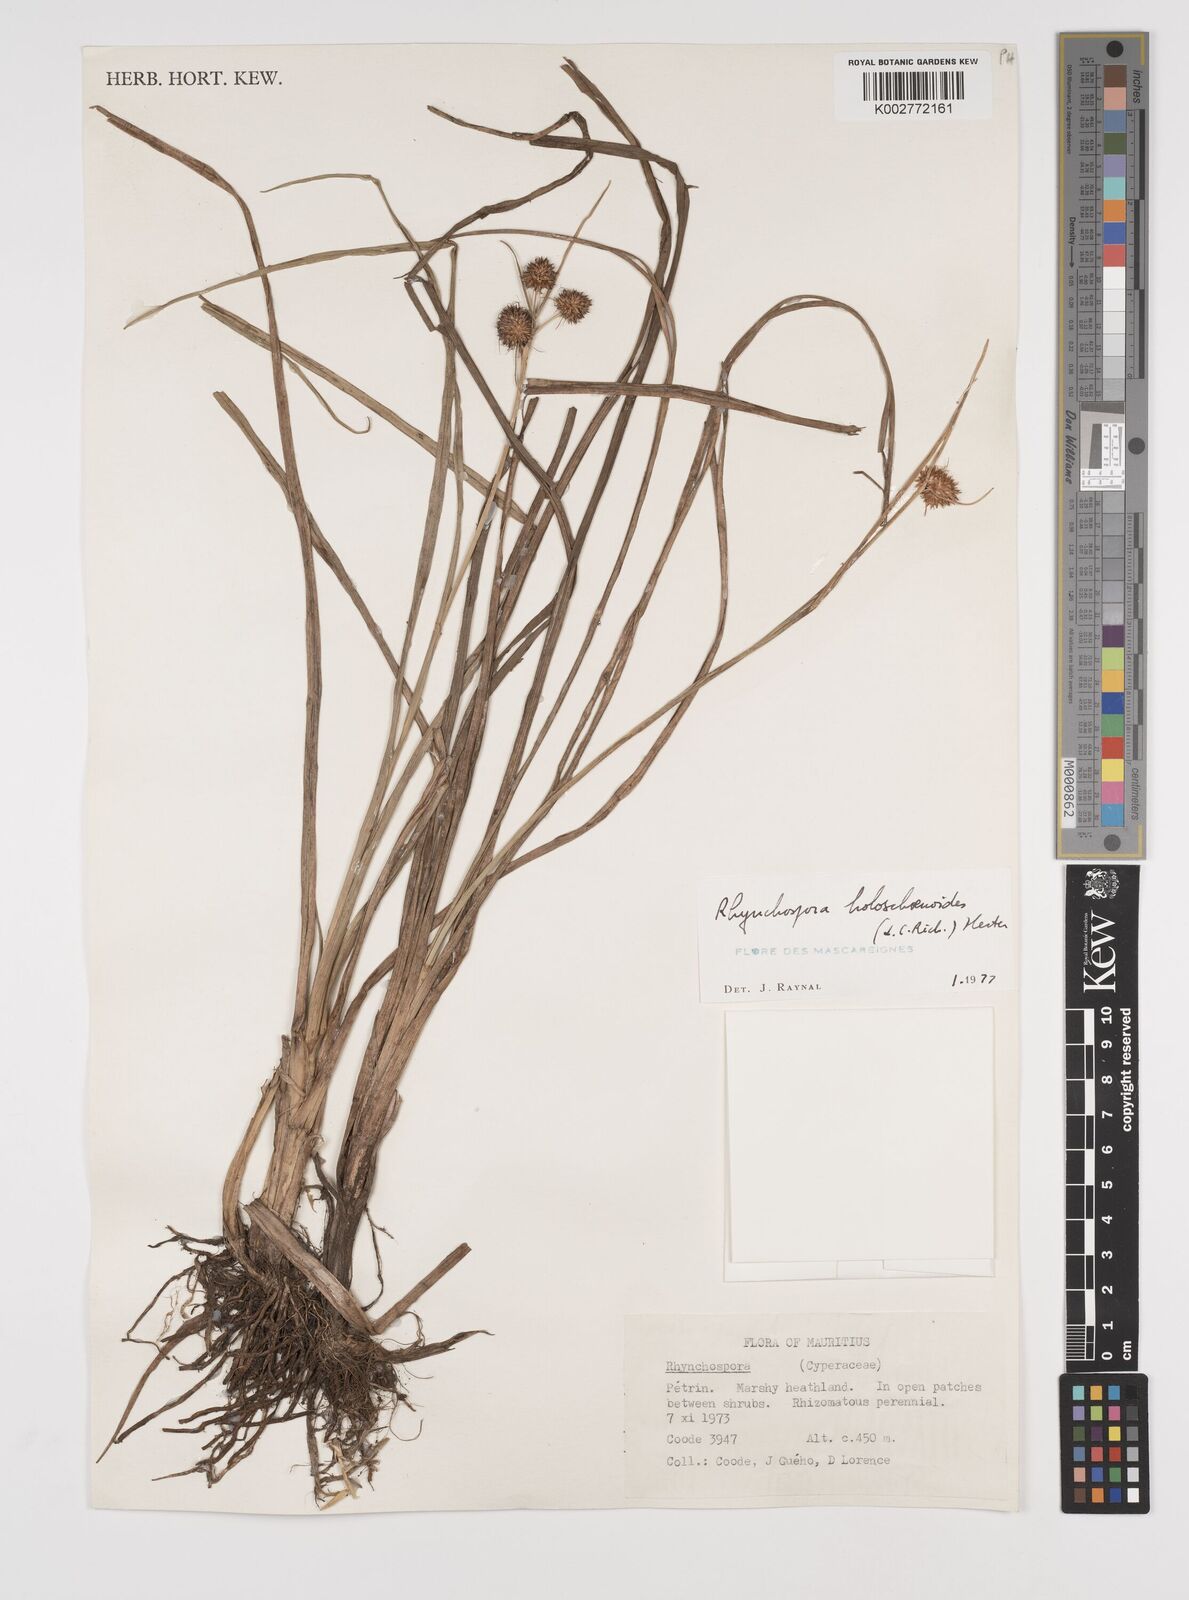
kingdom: Plantae
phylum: Tracheophyta
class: Liliopsida
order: Poales
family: Cyperaceae
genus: Rhynchospora
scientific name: Rhynchospora holoschoenoides
